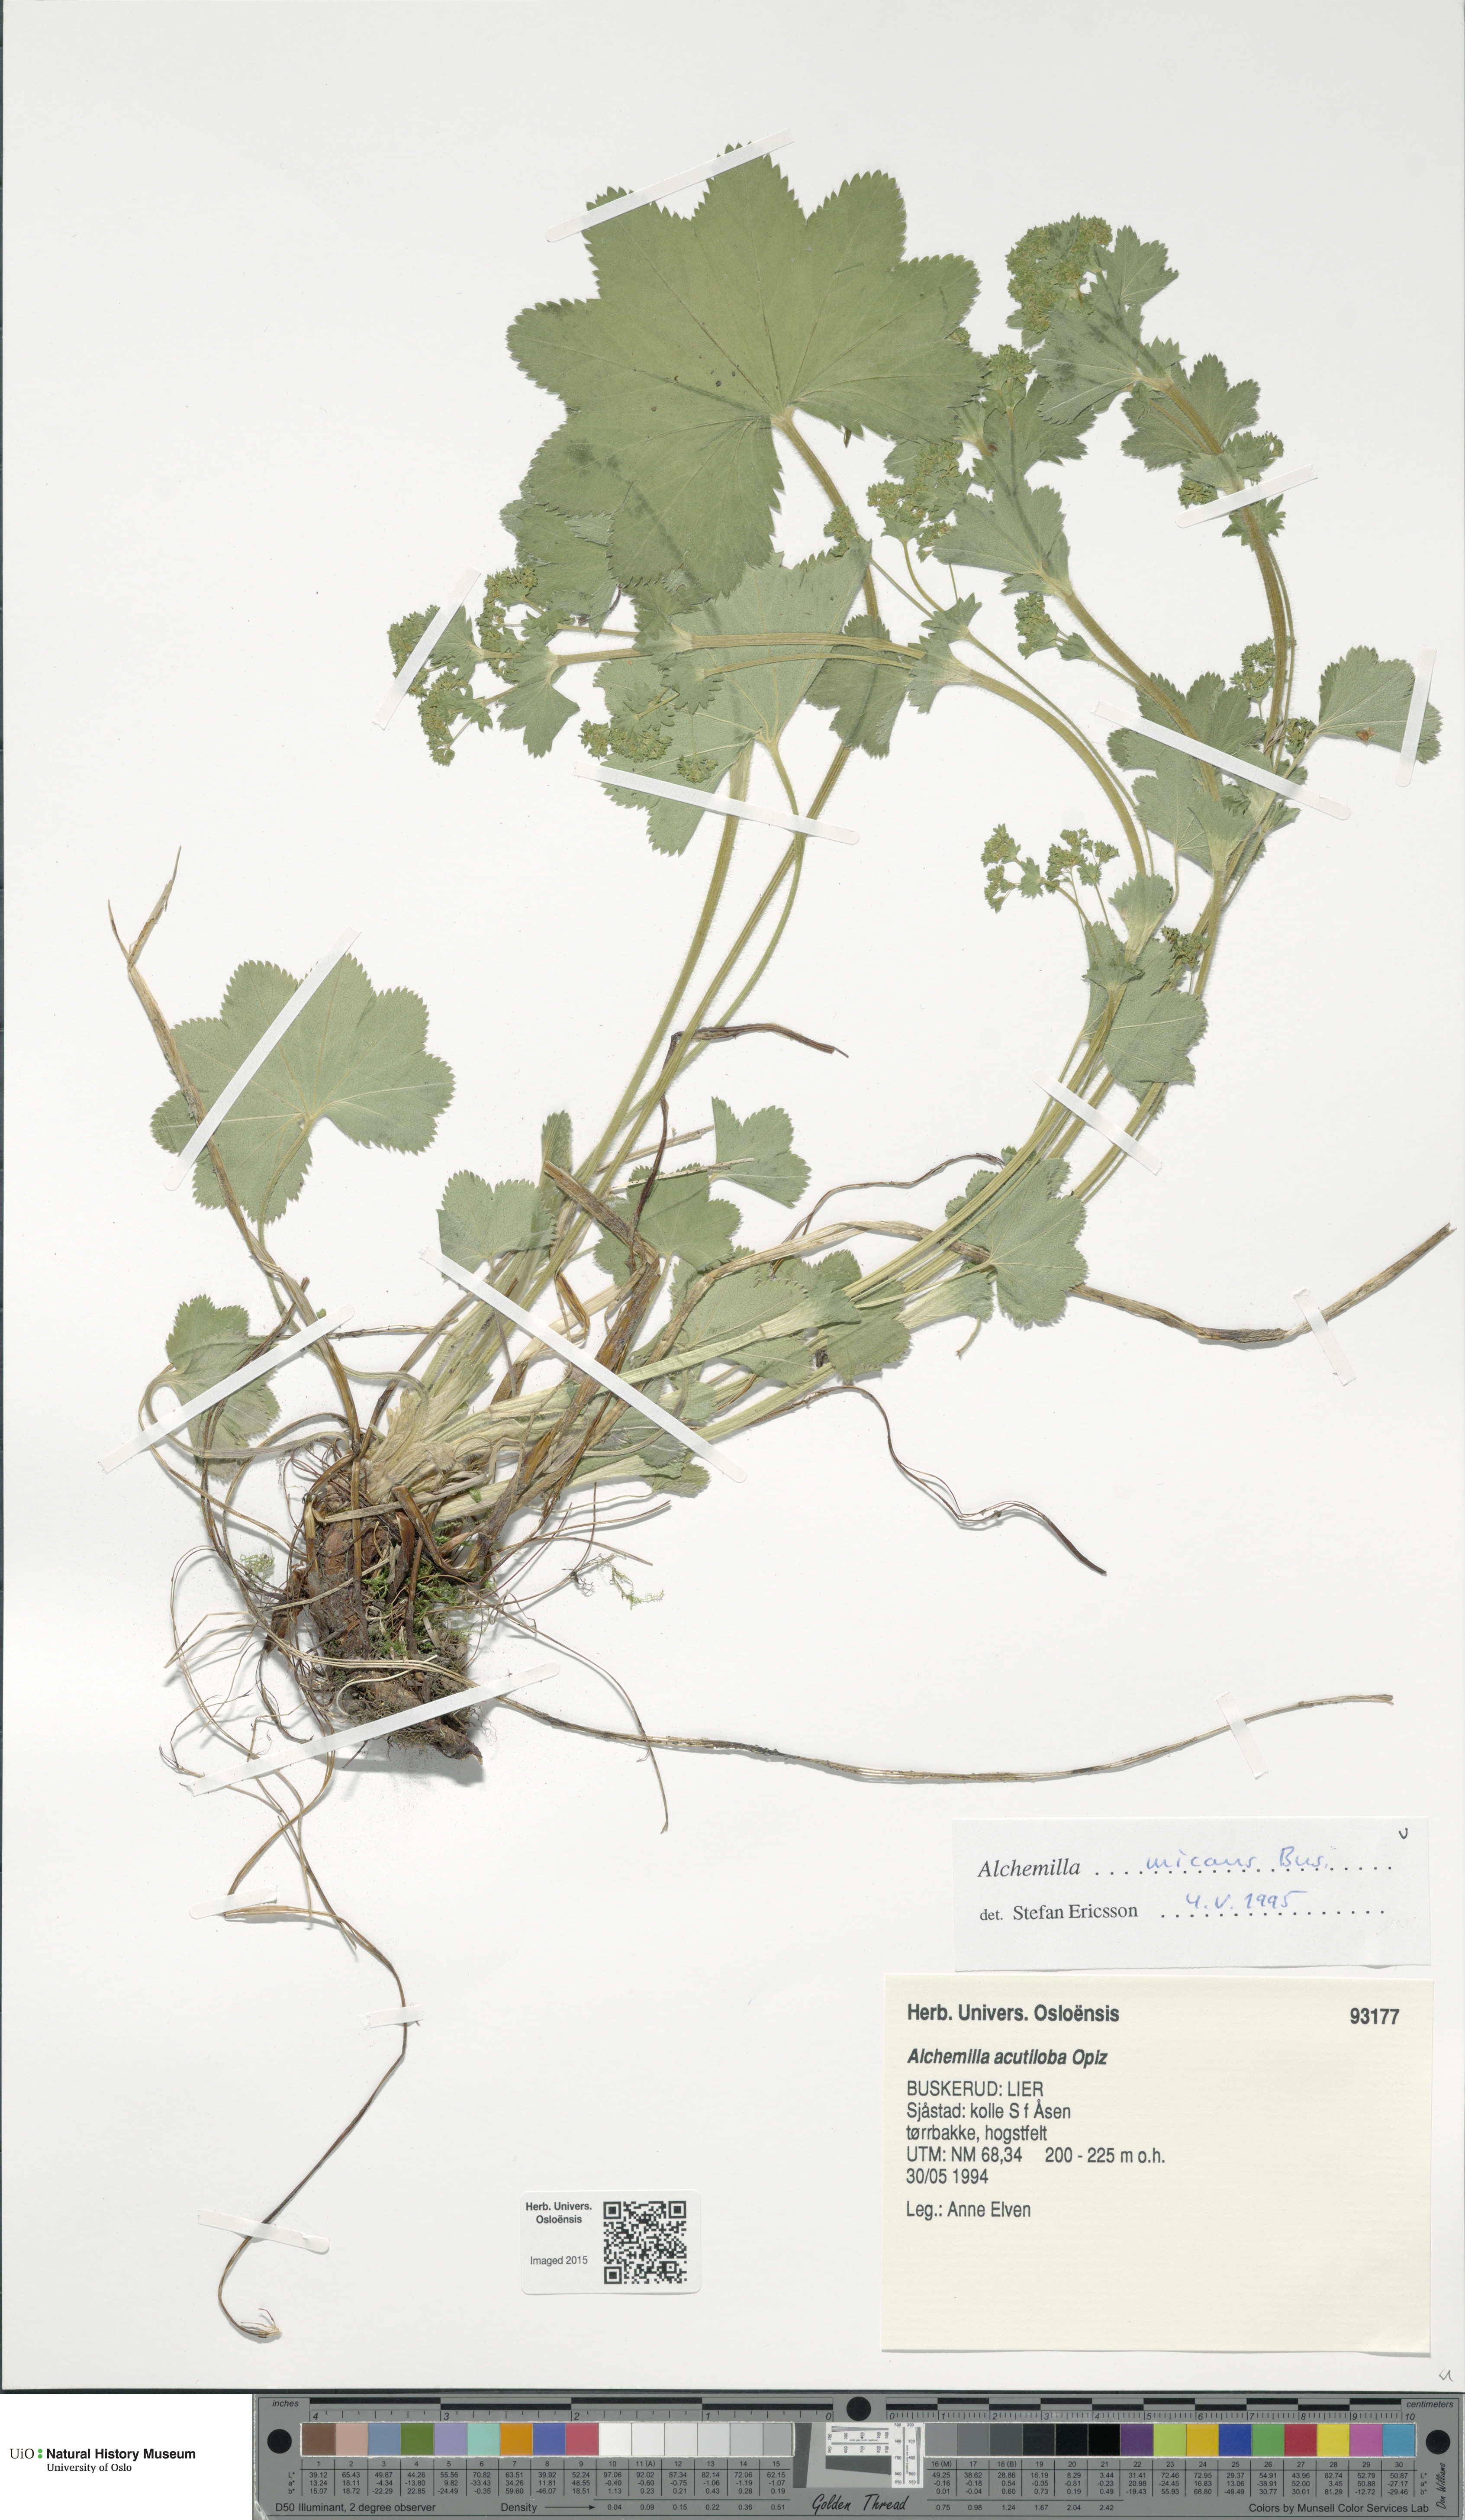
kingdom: Plantae
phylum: Tracheophyta
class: Magnoliopsida
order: Rosales
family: Rosaceae
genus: Alchemilla
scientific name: Alchemilla micans
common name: Gleaming lady's mantle
